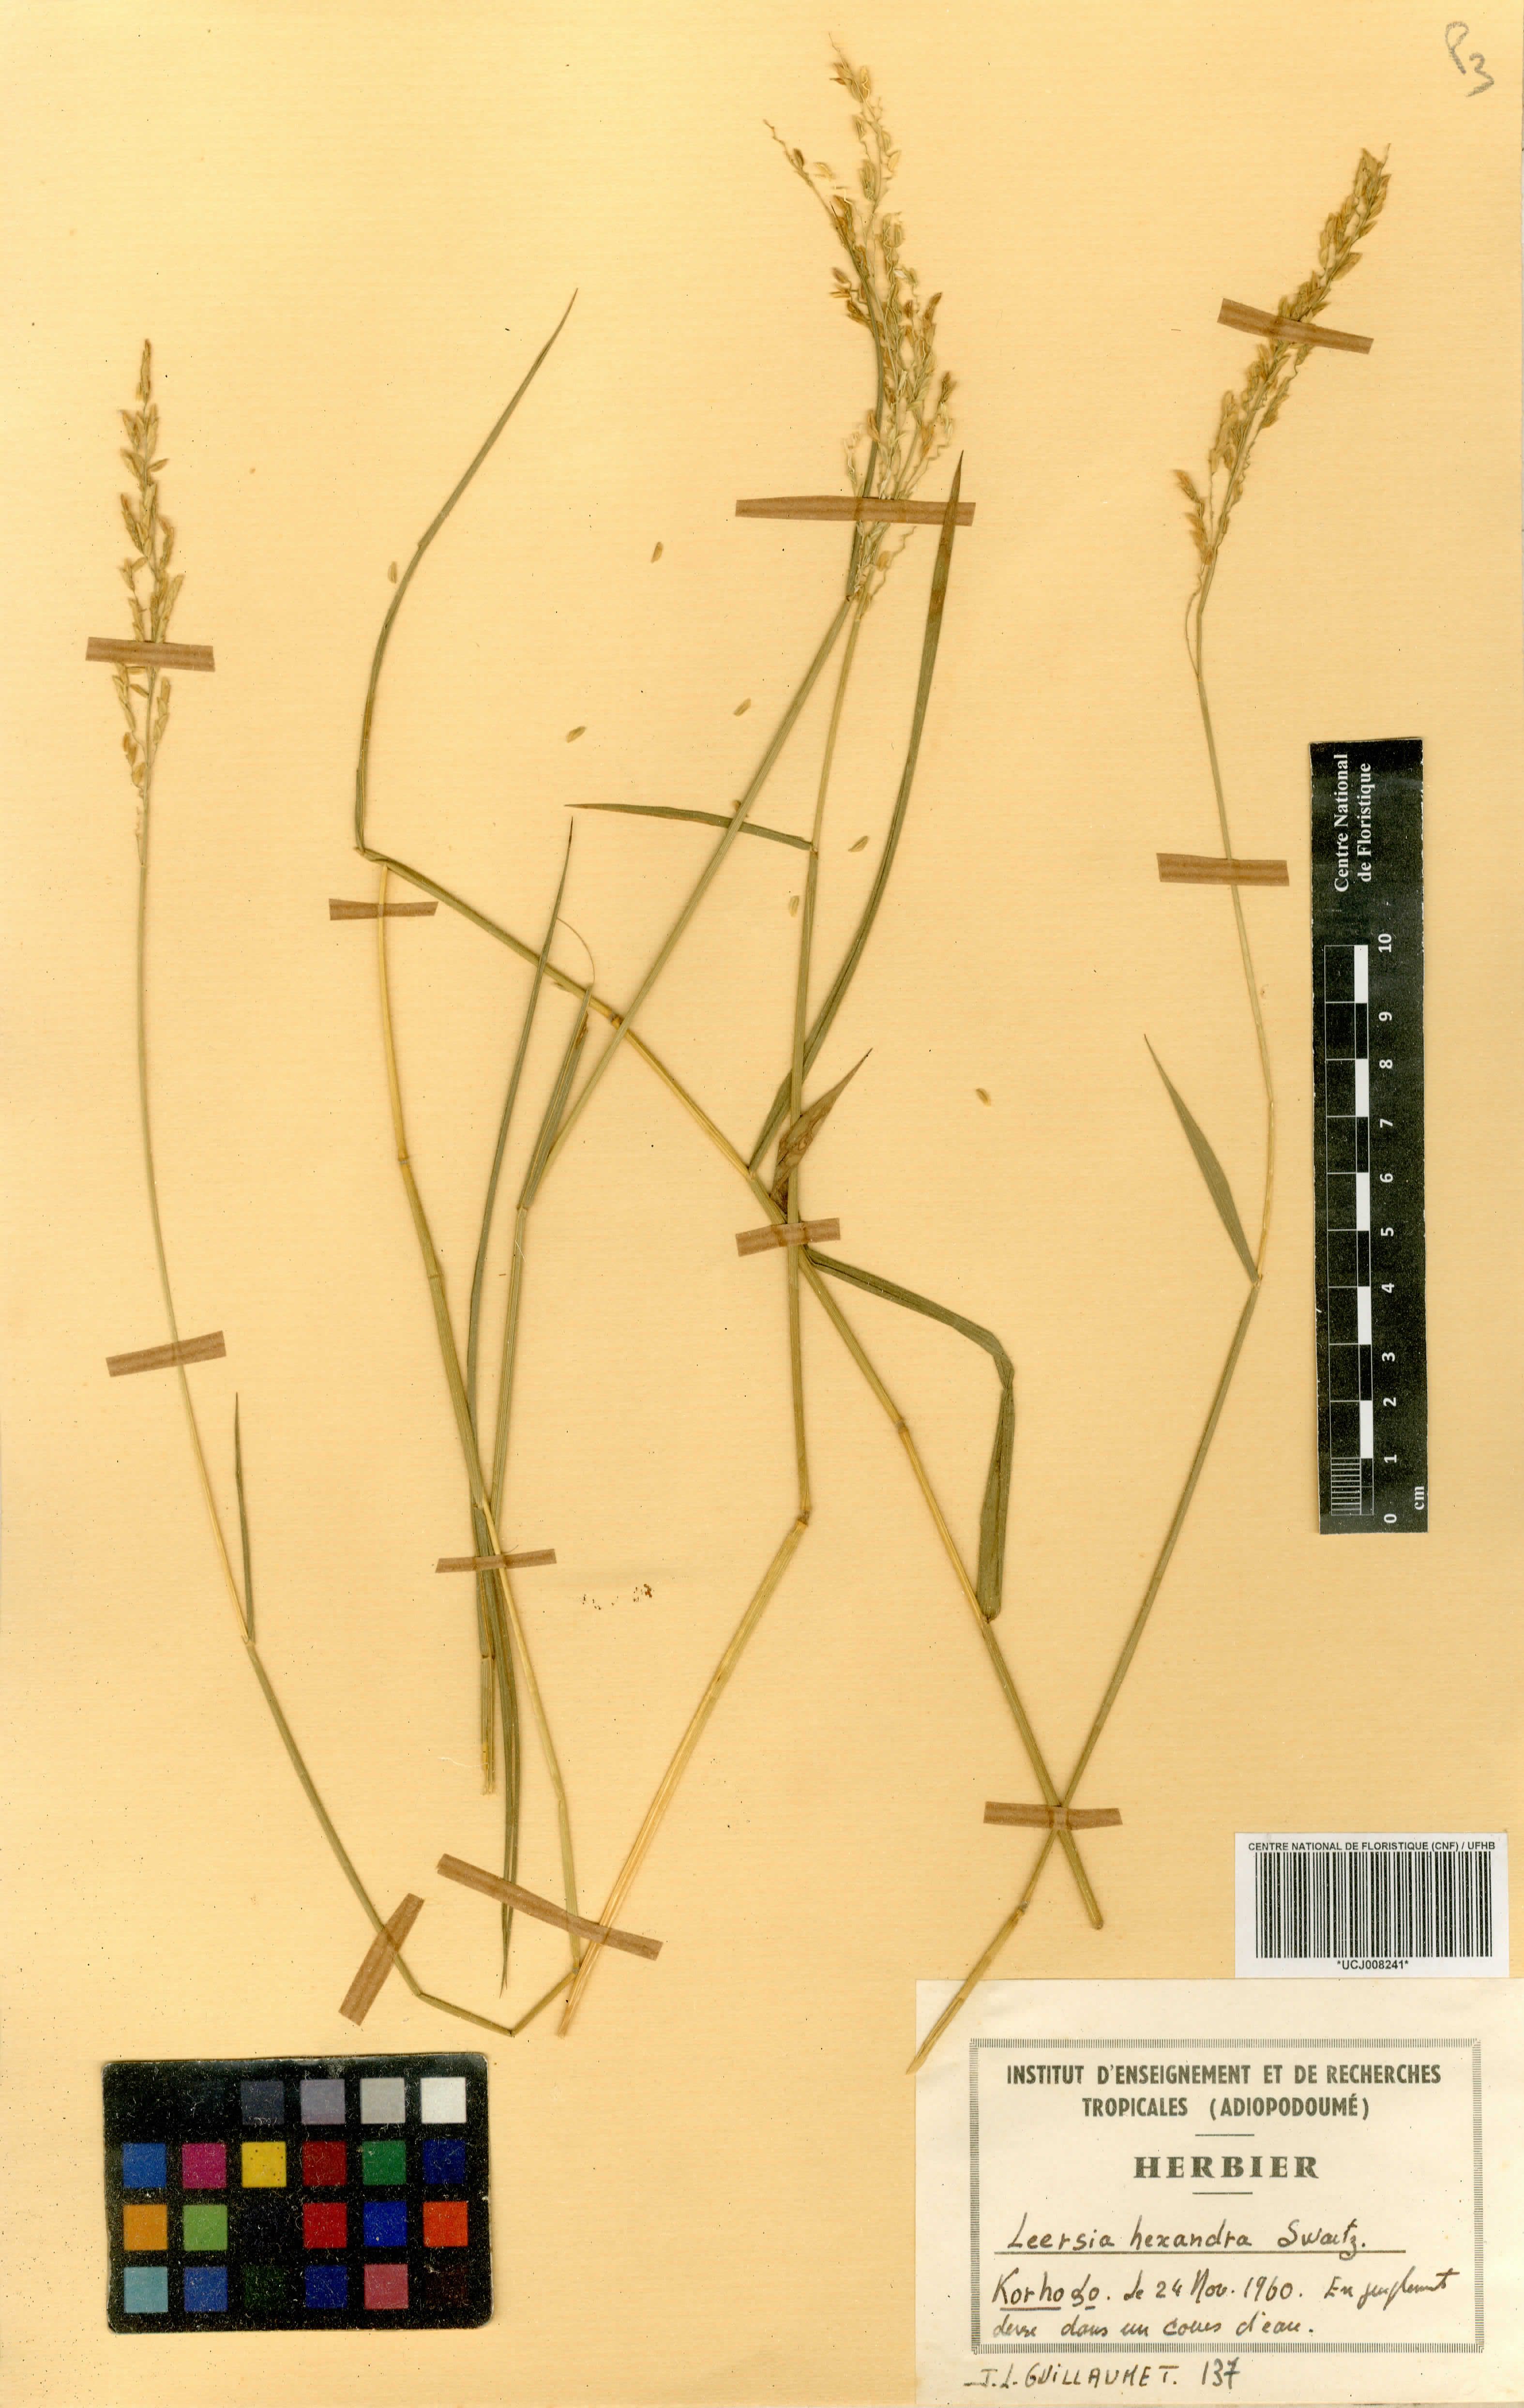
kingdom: Plantae
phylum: Tracheophyta
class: Liliopsida
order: Poales
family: Poaceae
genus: Leersia
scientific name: Leersia hexandra
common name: Southern cut grass
